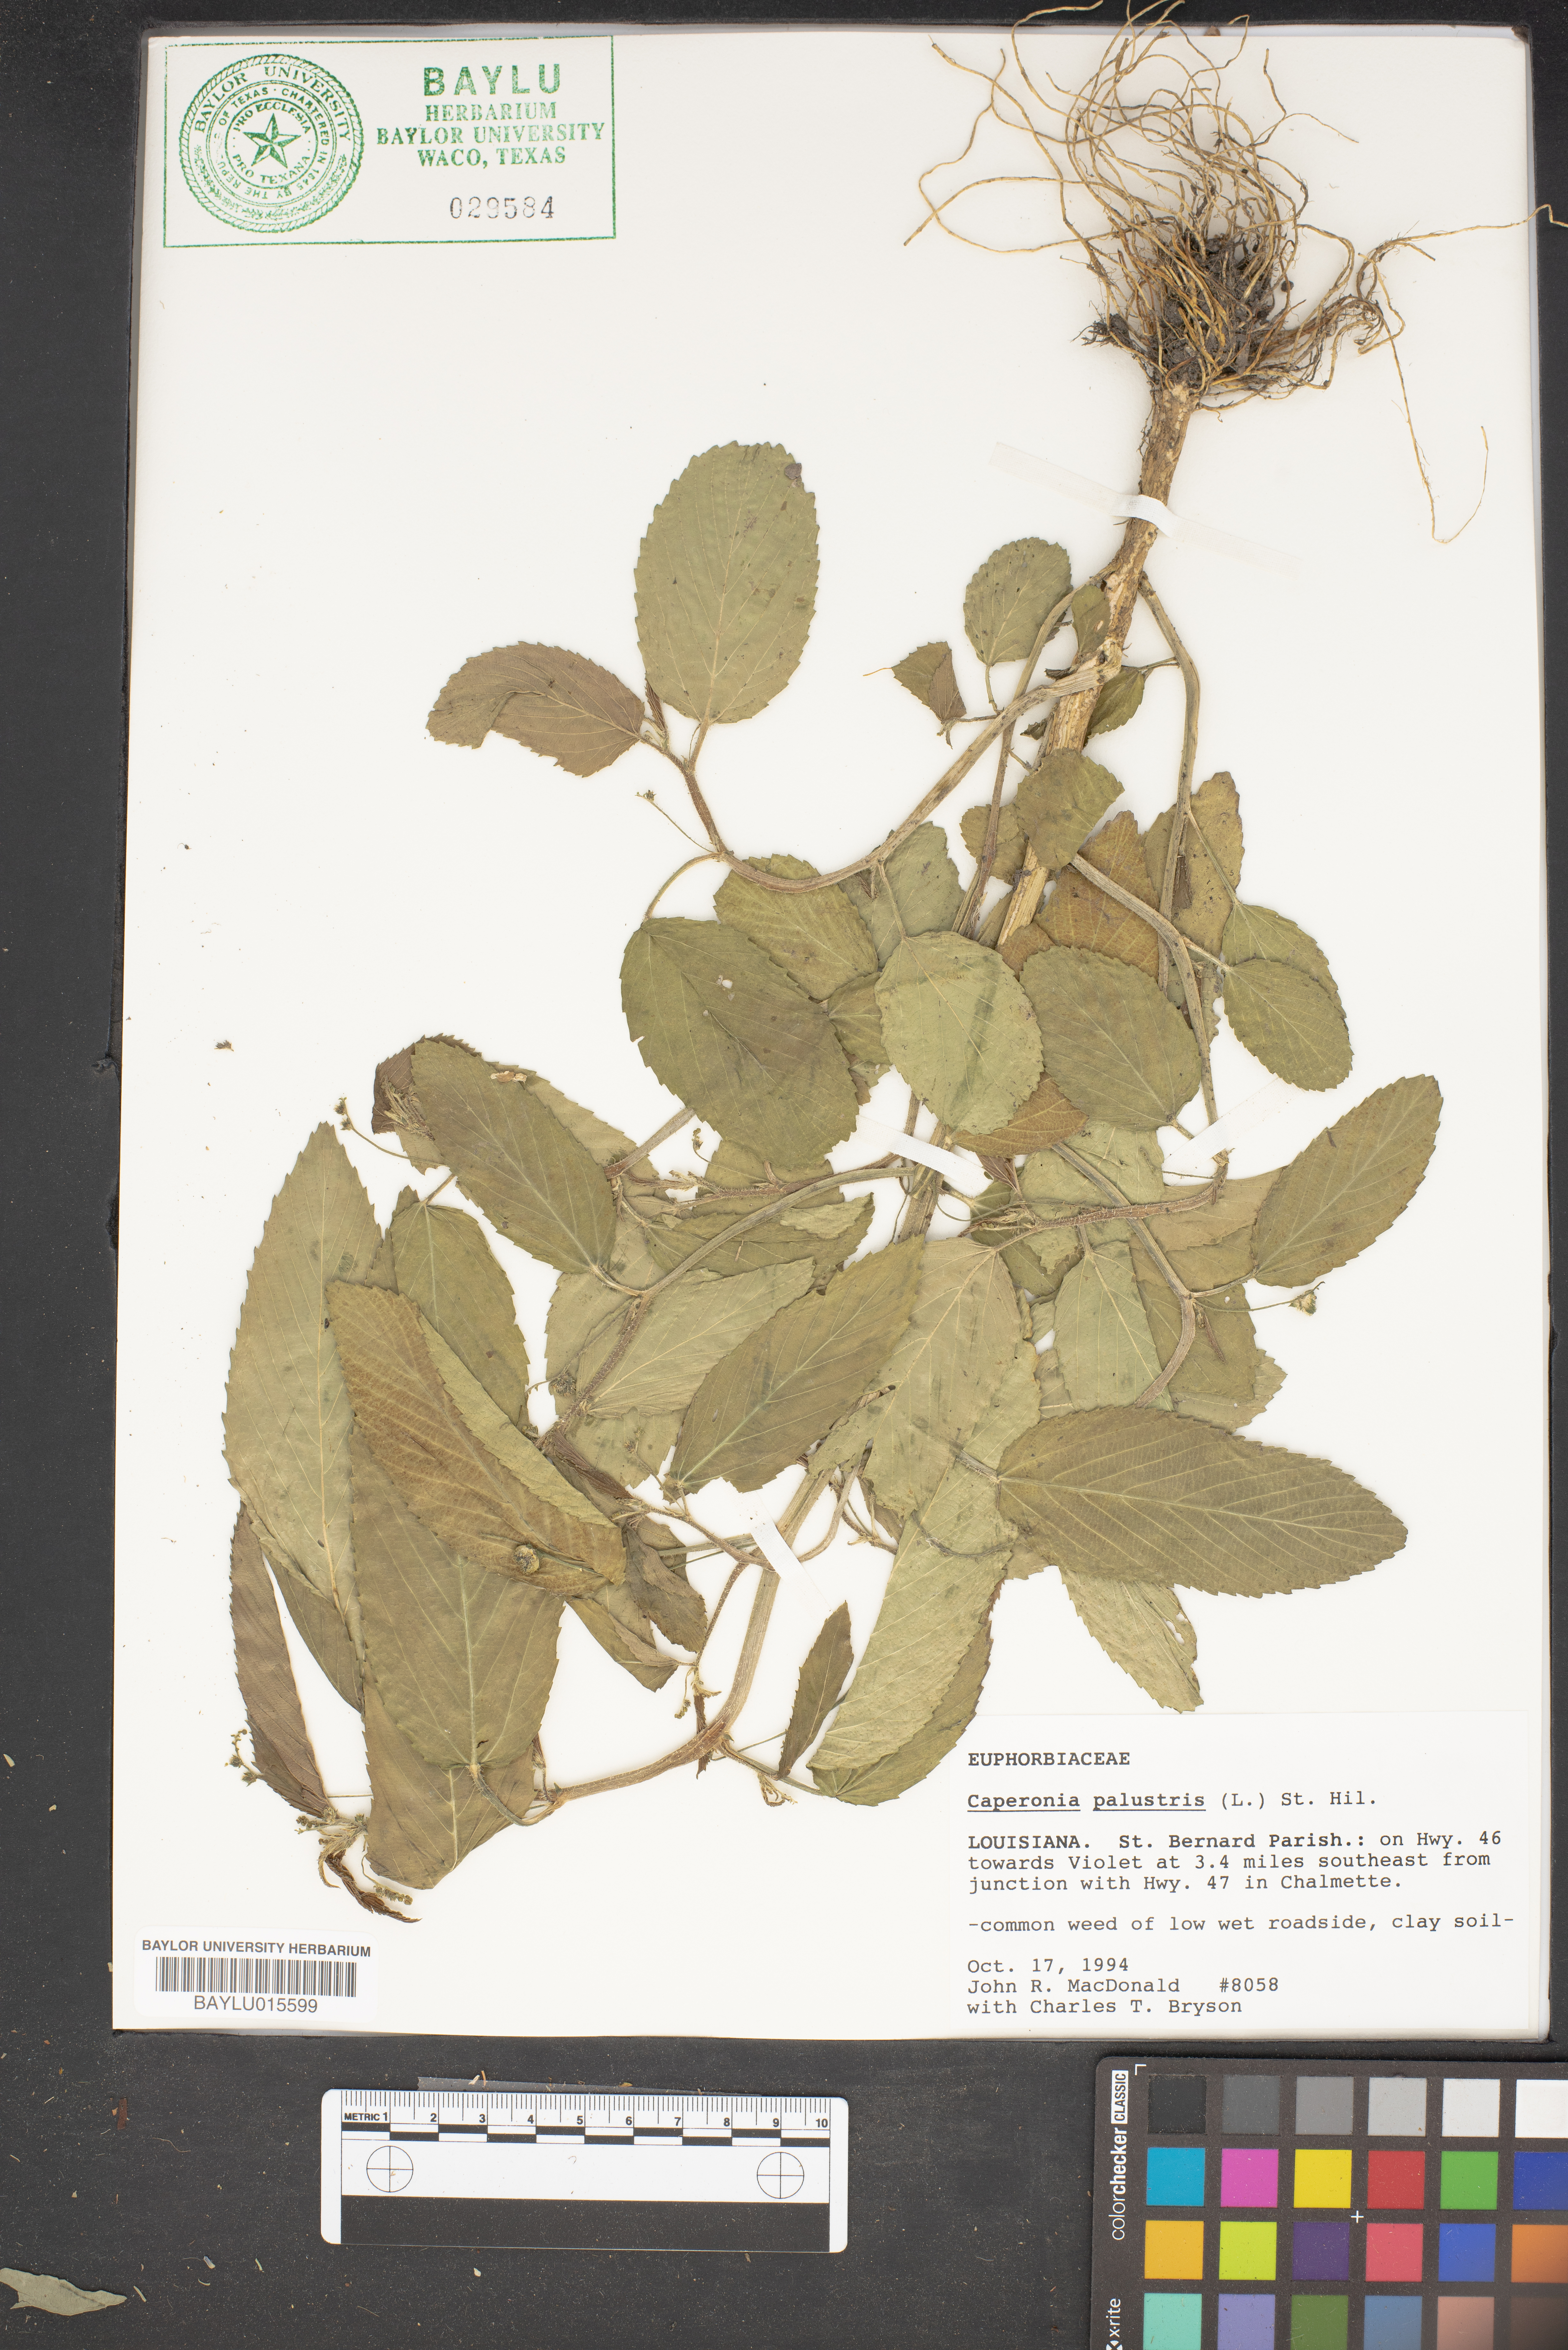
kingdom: Plantae
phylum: Tracheophyta
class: Magnoliopsida
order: Malpighiales
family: Euphorbiaceae
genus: Caperonia
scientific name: Caperonia palustris
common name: Sacatrapo
